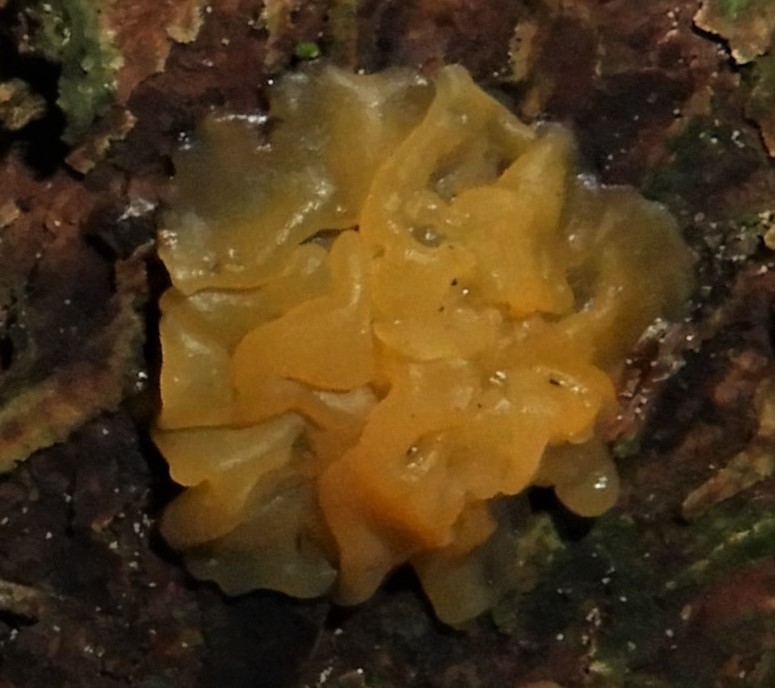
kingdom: Fungi
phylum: Basidiomycota
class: Dacrymycetes
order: Dacrymycetales
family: Dacrymycetaceae
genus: Dacrymyces
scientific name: Dacrymyces
